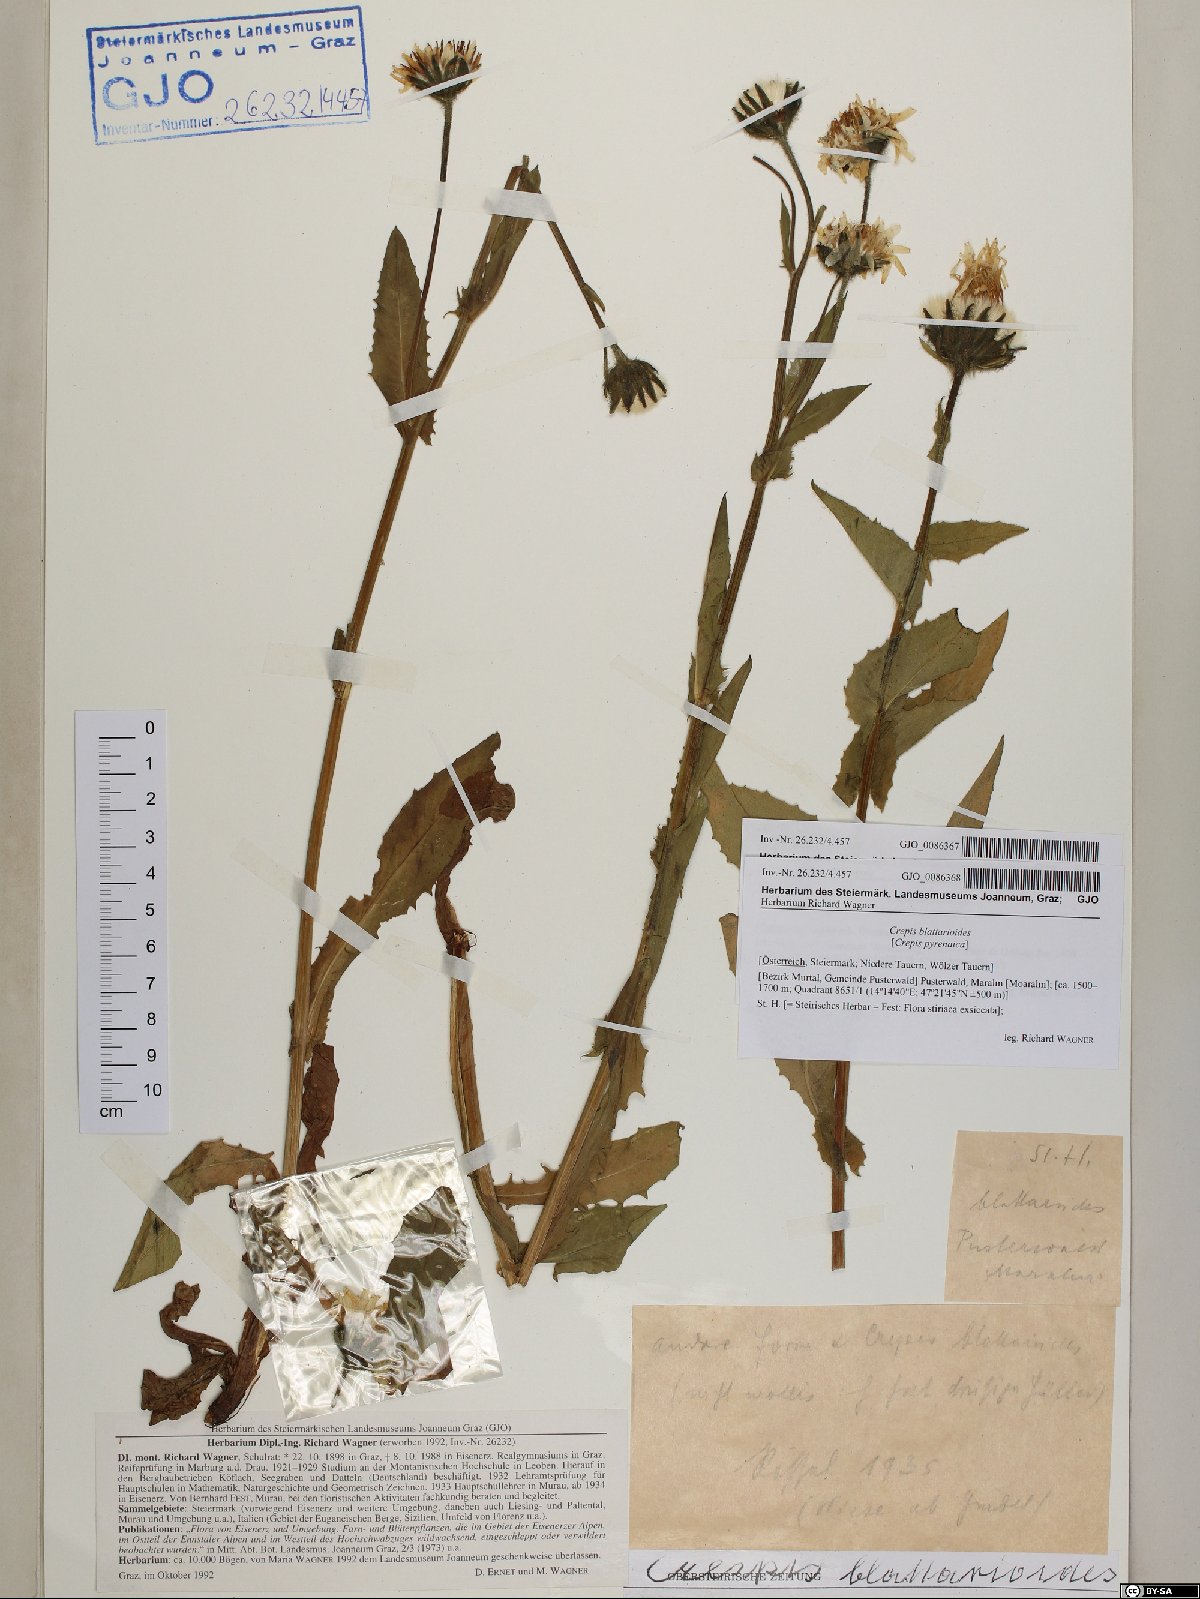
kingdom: Plantae
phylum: Tracheophyta
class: Magnoliopsida
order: Asterales
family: Asteraceae
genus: Crepis
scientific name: Crepis blattarioides
